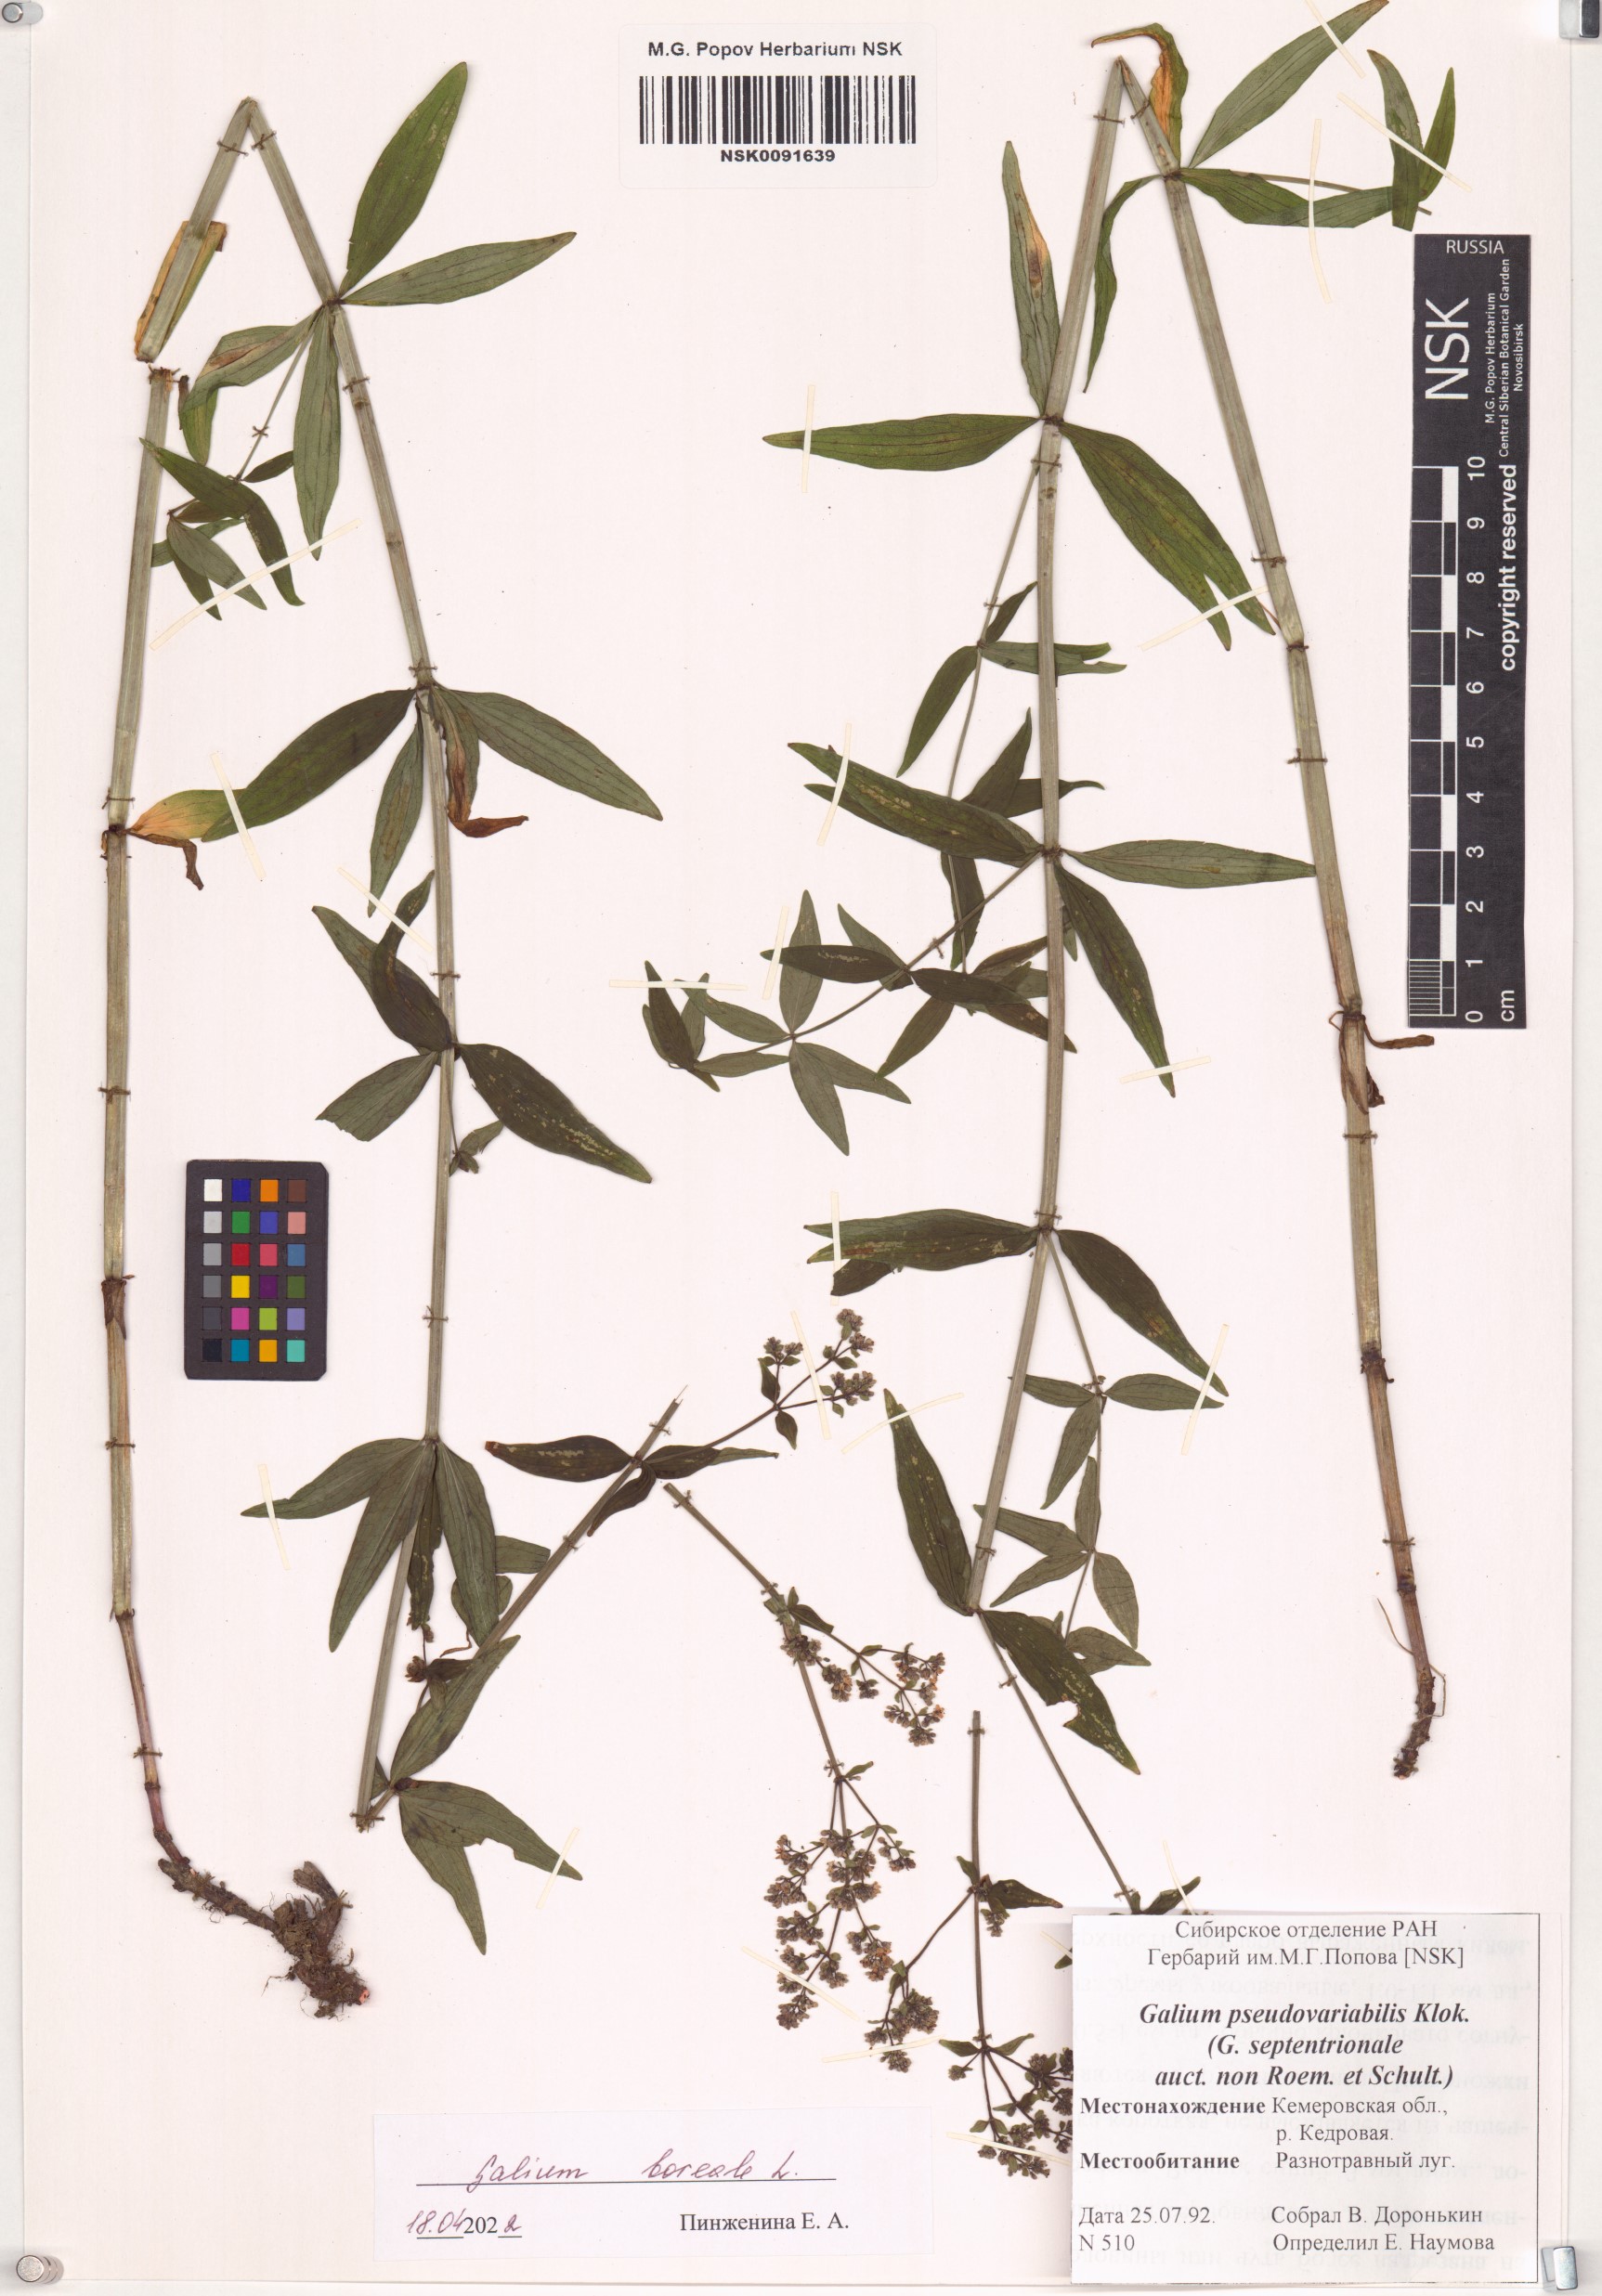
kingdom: Plantae
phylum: Tracheophyta
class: Magnoliopsida
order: Gentianales
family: Rubiaceae
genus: Galium
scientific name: Galium boreale
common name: Northern bedstraw
